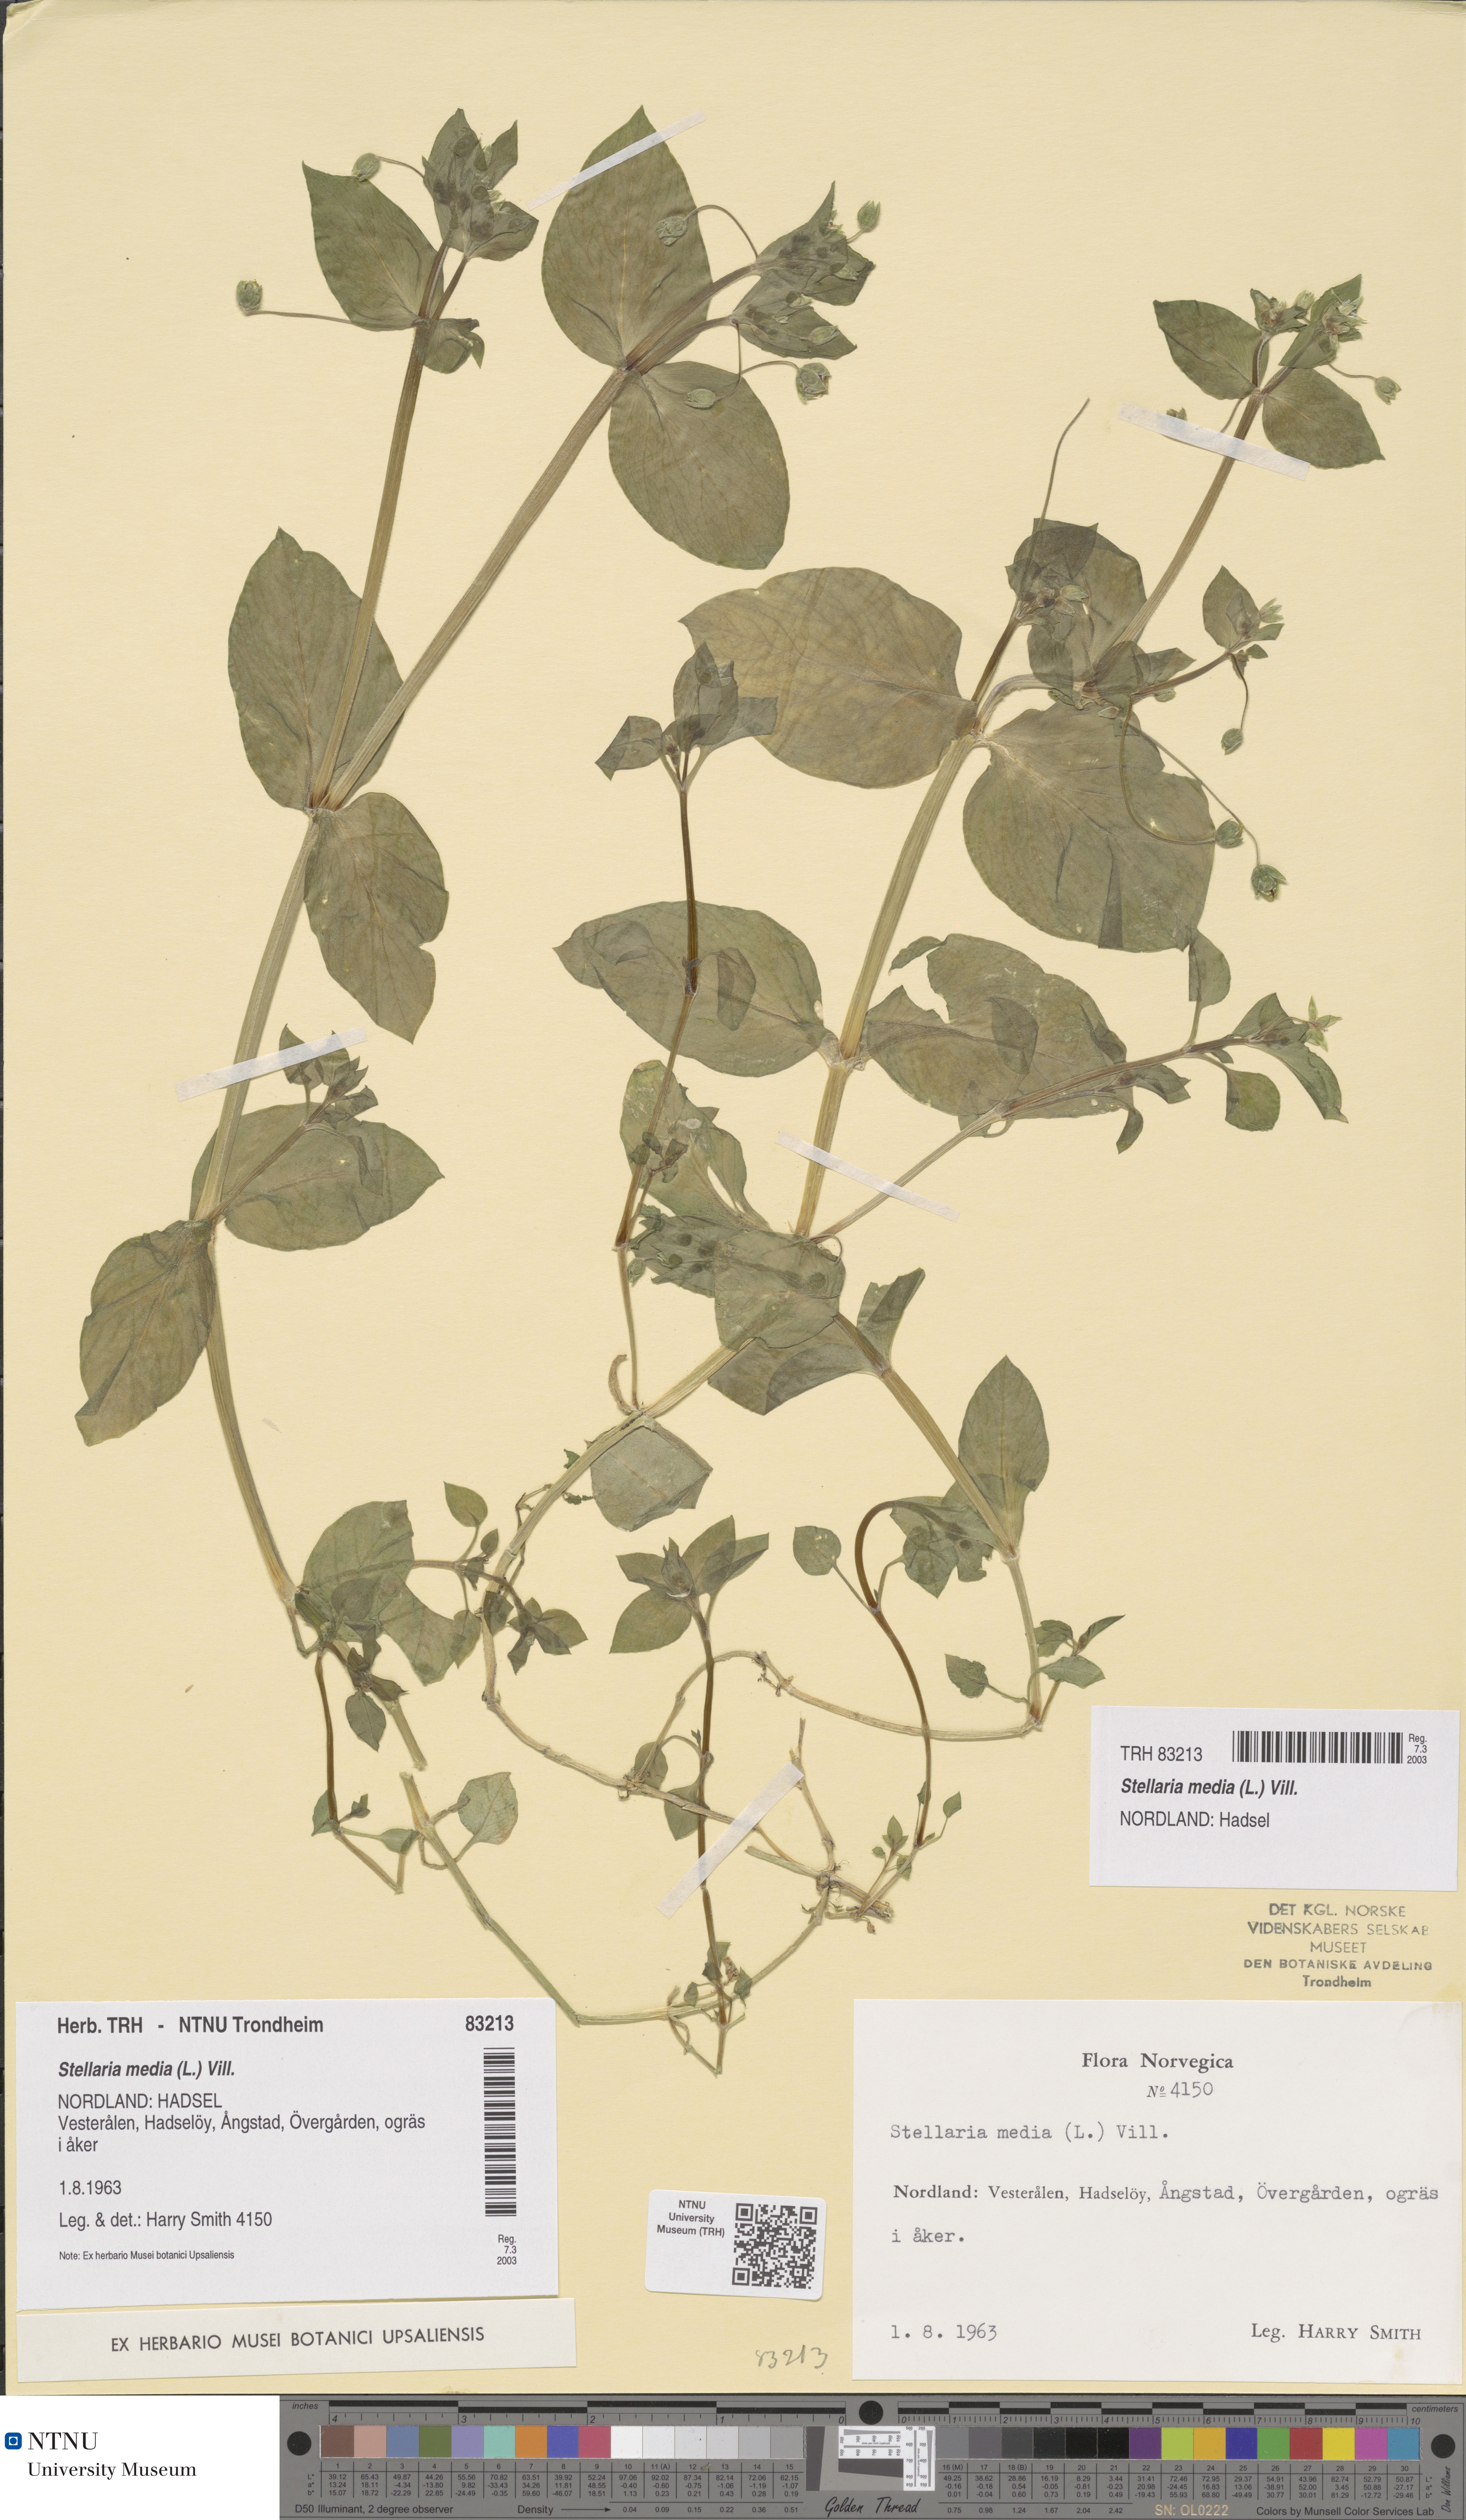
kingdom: Plantae
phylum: Tracheophyta
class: Magnoliopsida
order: Caryophyllales
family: Caryophyllaceae
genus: Stellaria
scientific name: Stellaria media
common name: Common chickweed
